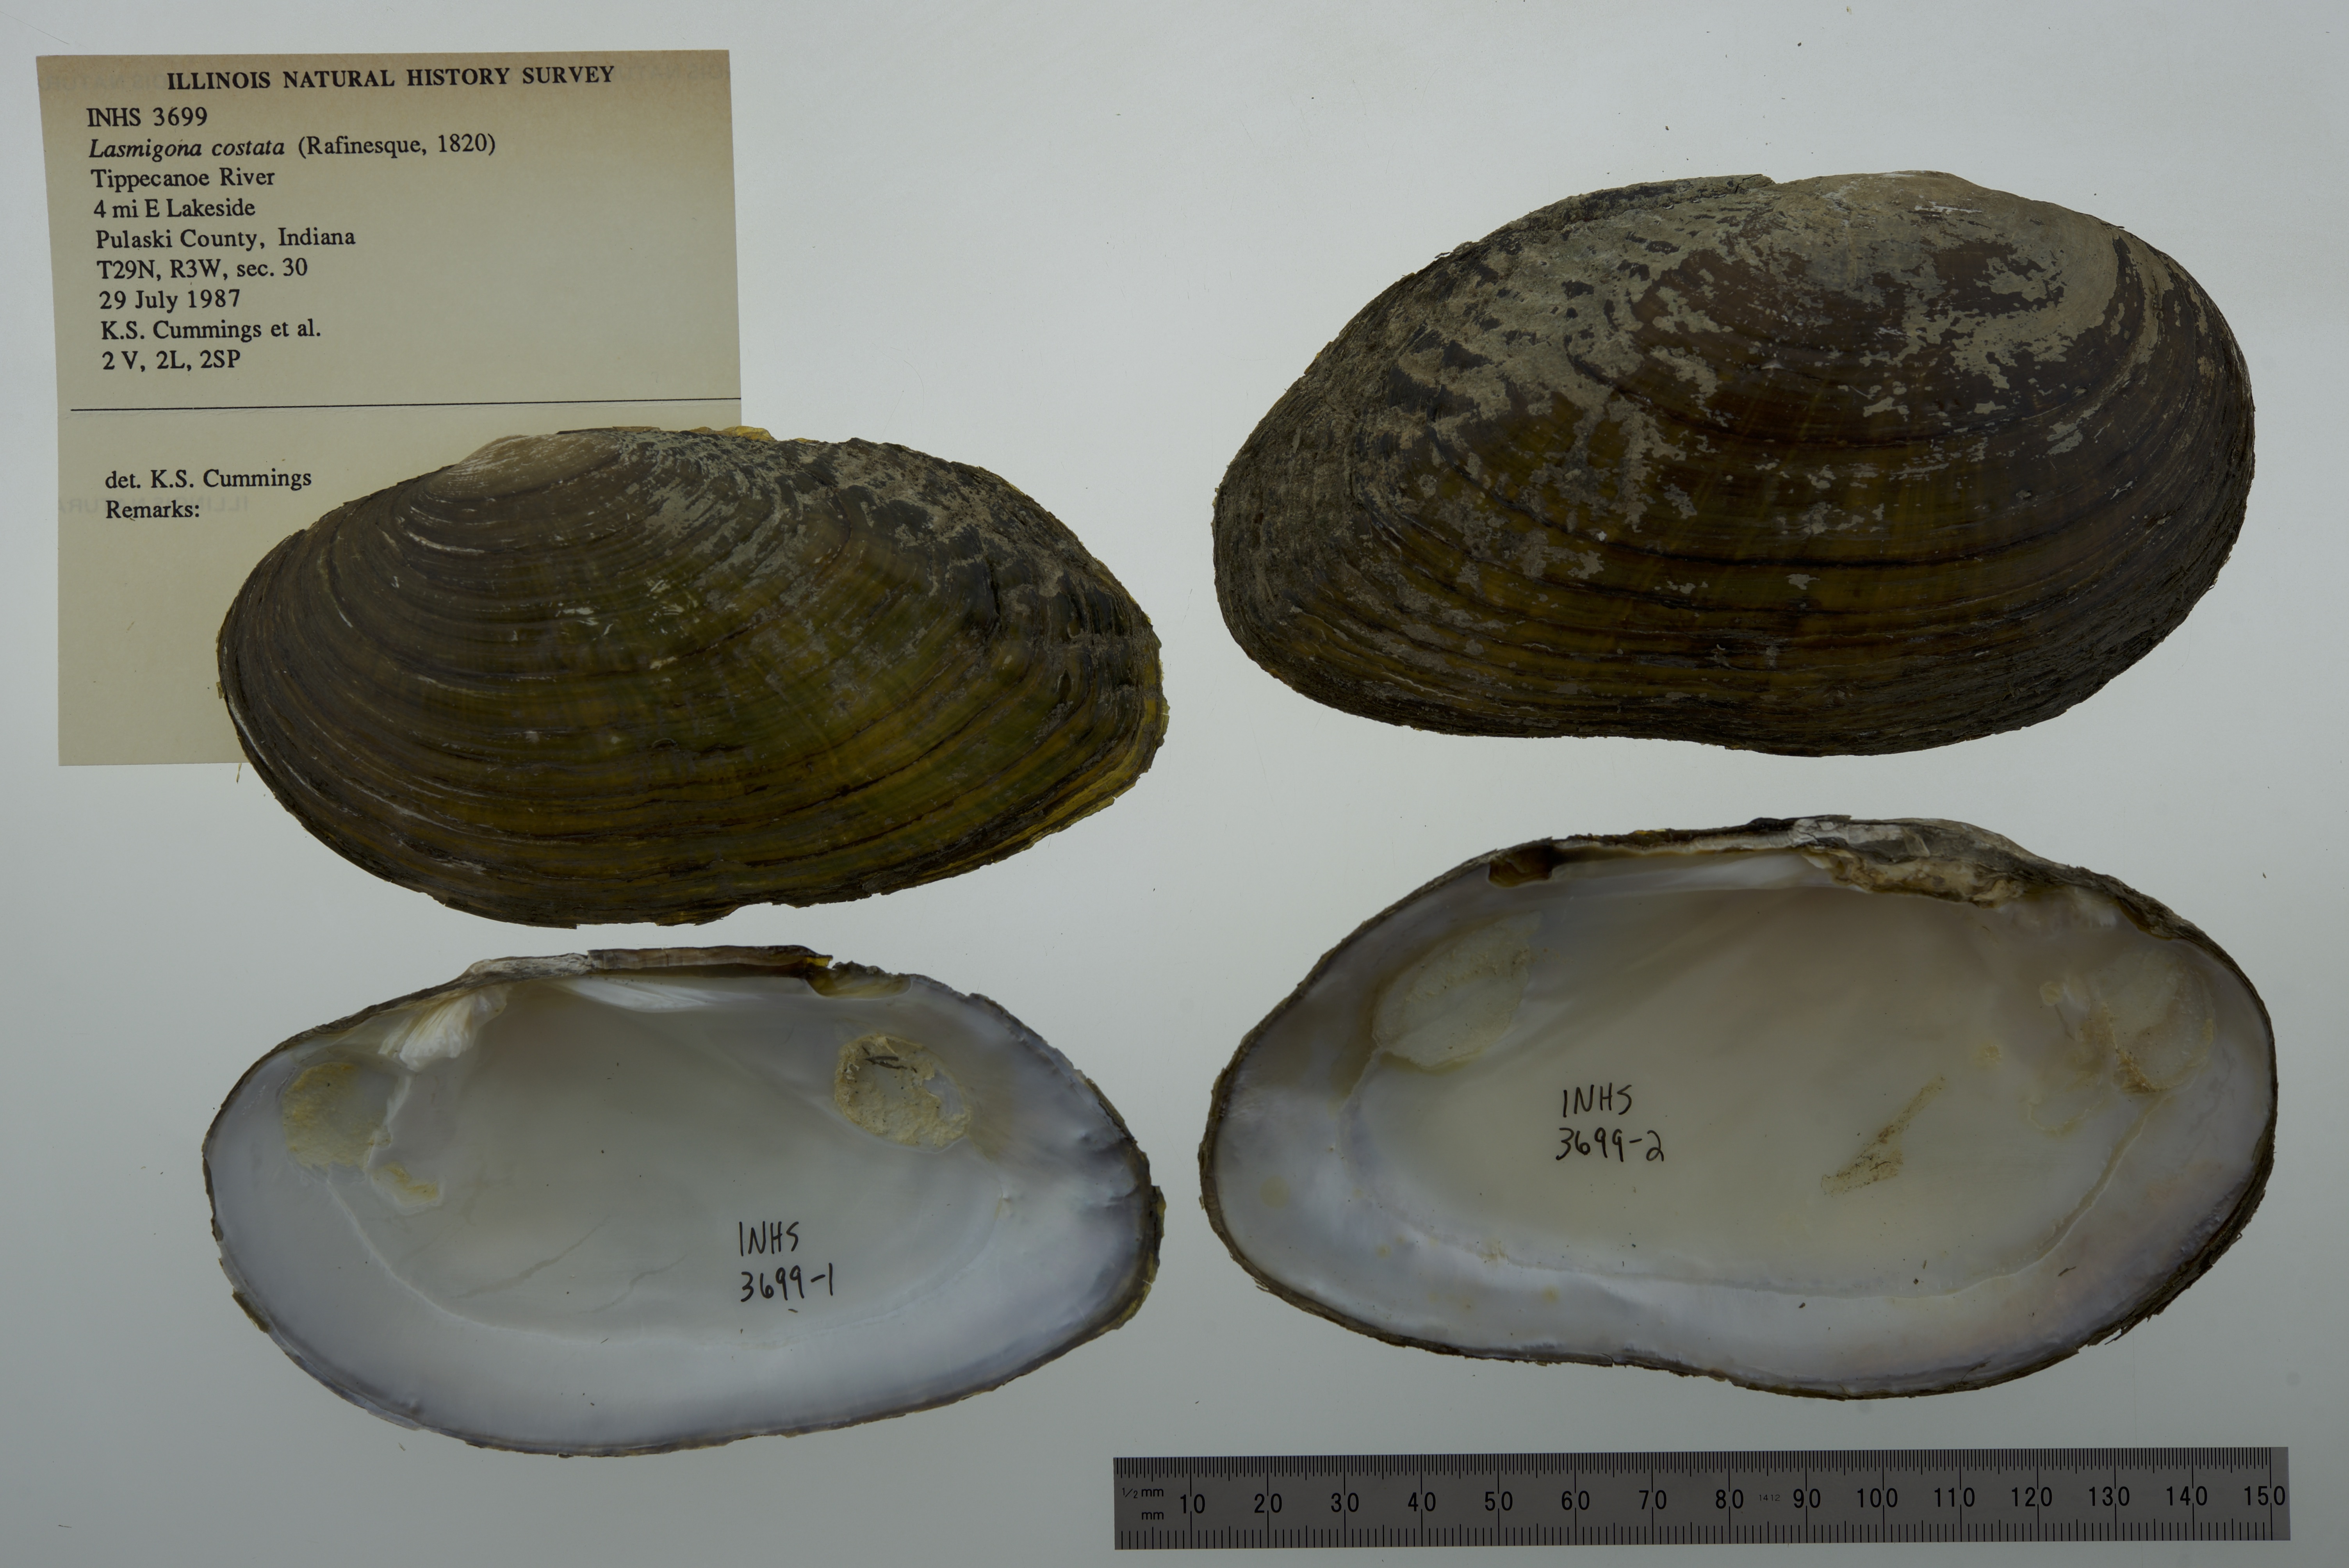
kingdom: Animalia
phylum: Mollusca
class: Bivalvia
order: Unionida
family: Unionidae
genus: Lasmigona
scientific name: Lasmigona costata
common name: Flutedshell
